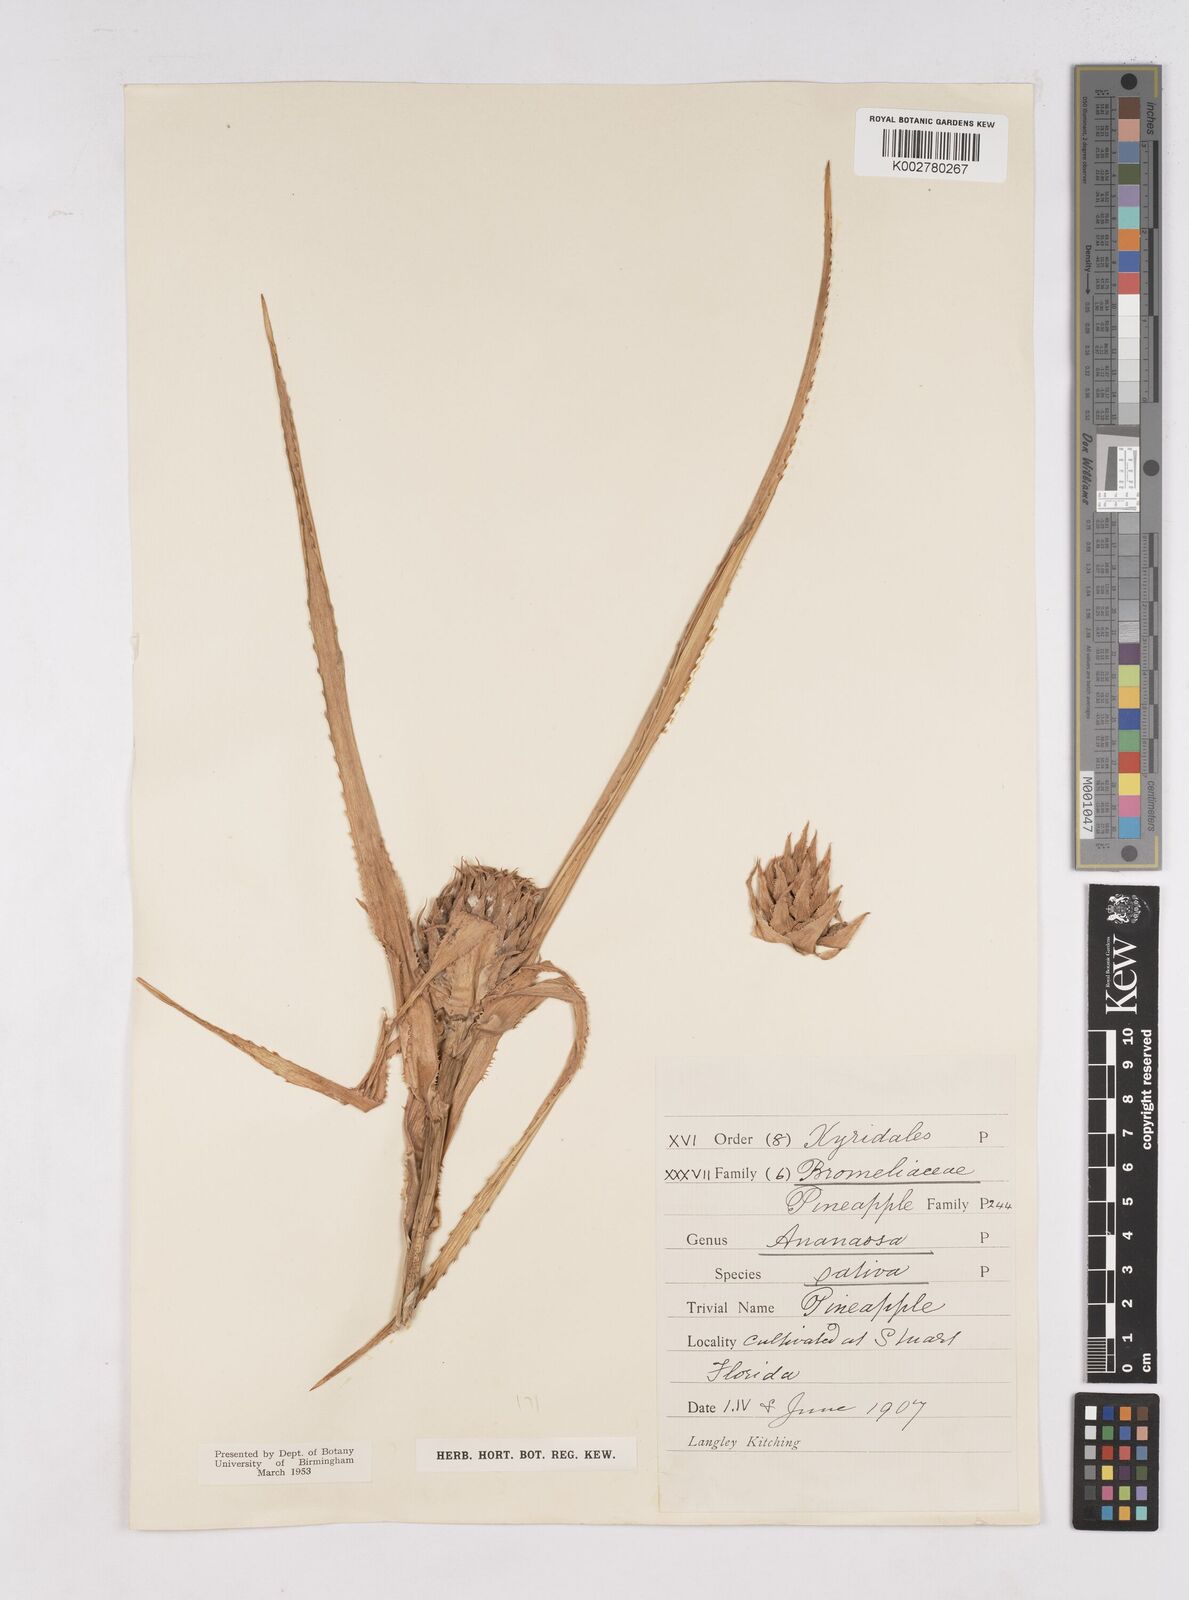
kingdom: Plantae
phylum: Tracheophyta
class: Liliopsida
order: Poales
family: Bromeliaceae
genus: Ananas
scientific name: Ananas comosus
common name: Pineapple
